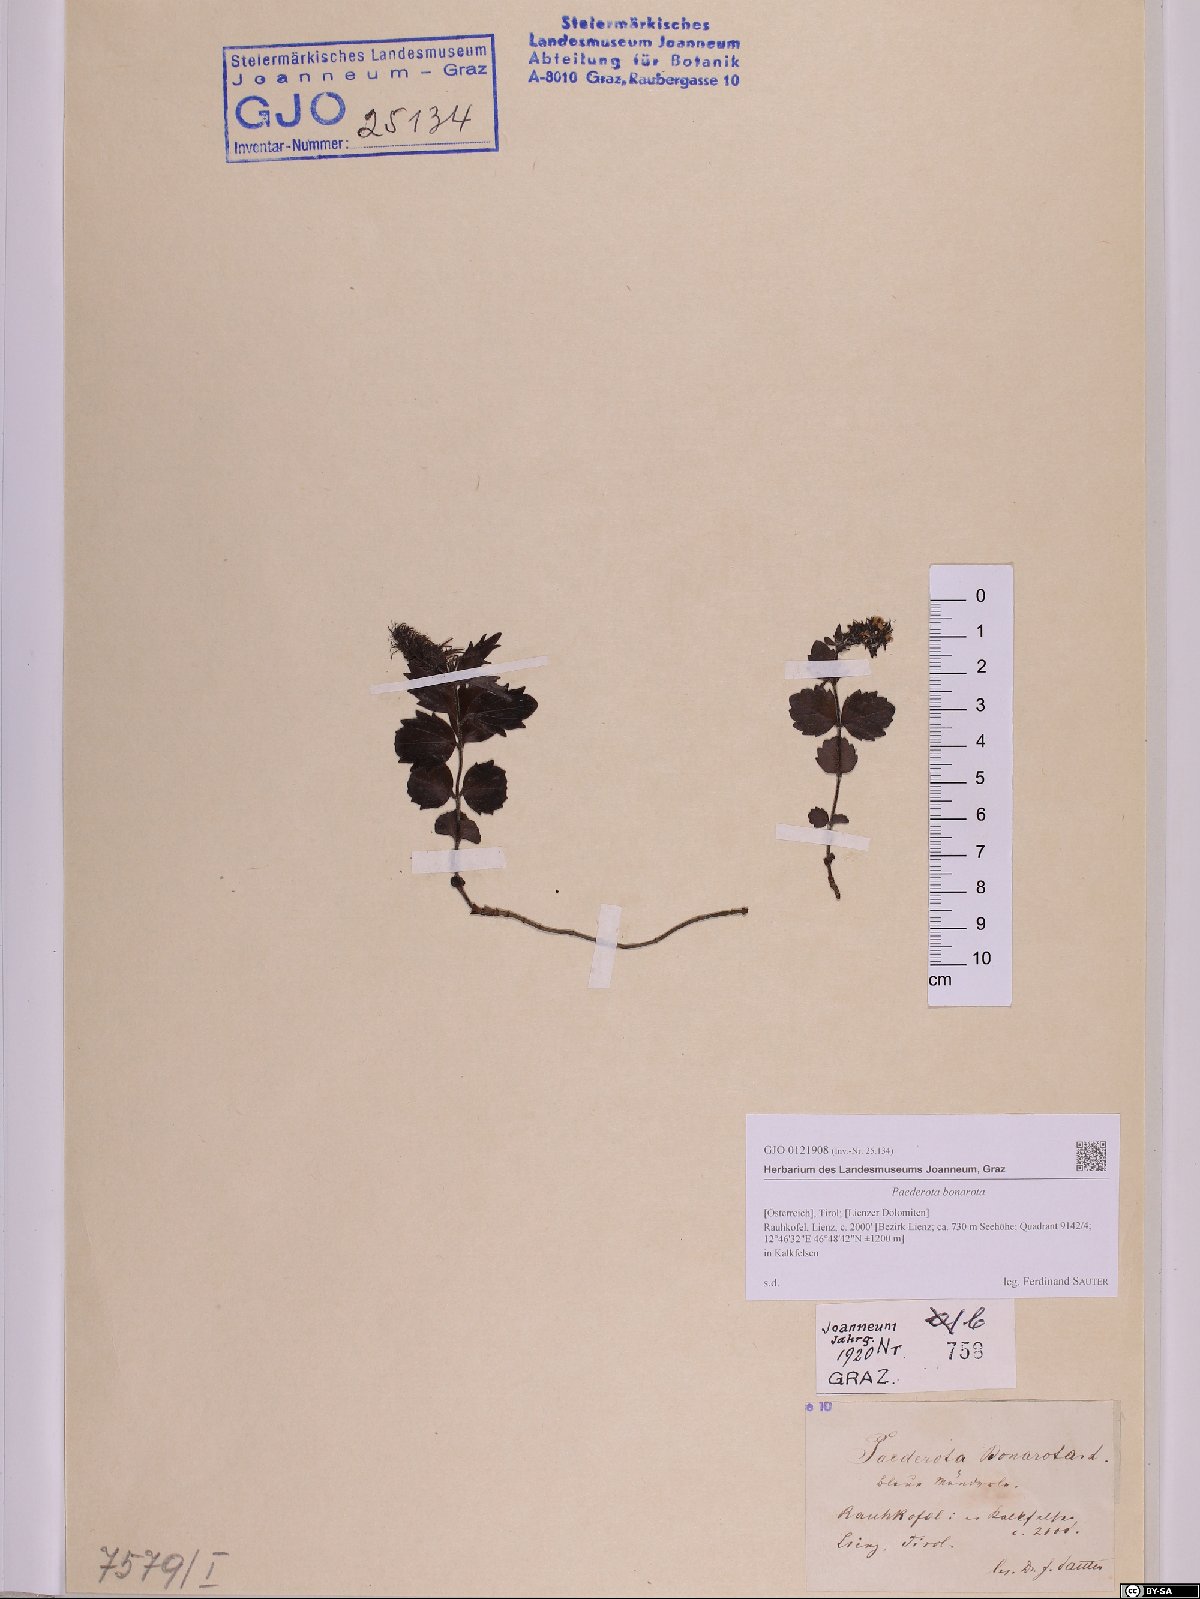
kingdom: Plantae
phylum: Tracheophyta
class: Magnoliopsida
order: Lamiales
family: Plantaginaceae
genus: Paederota
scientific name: Paederota bonarota
